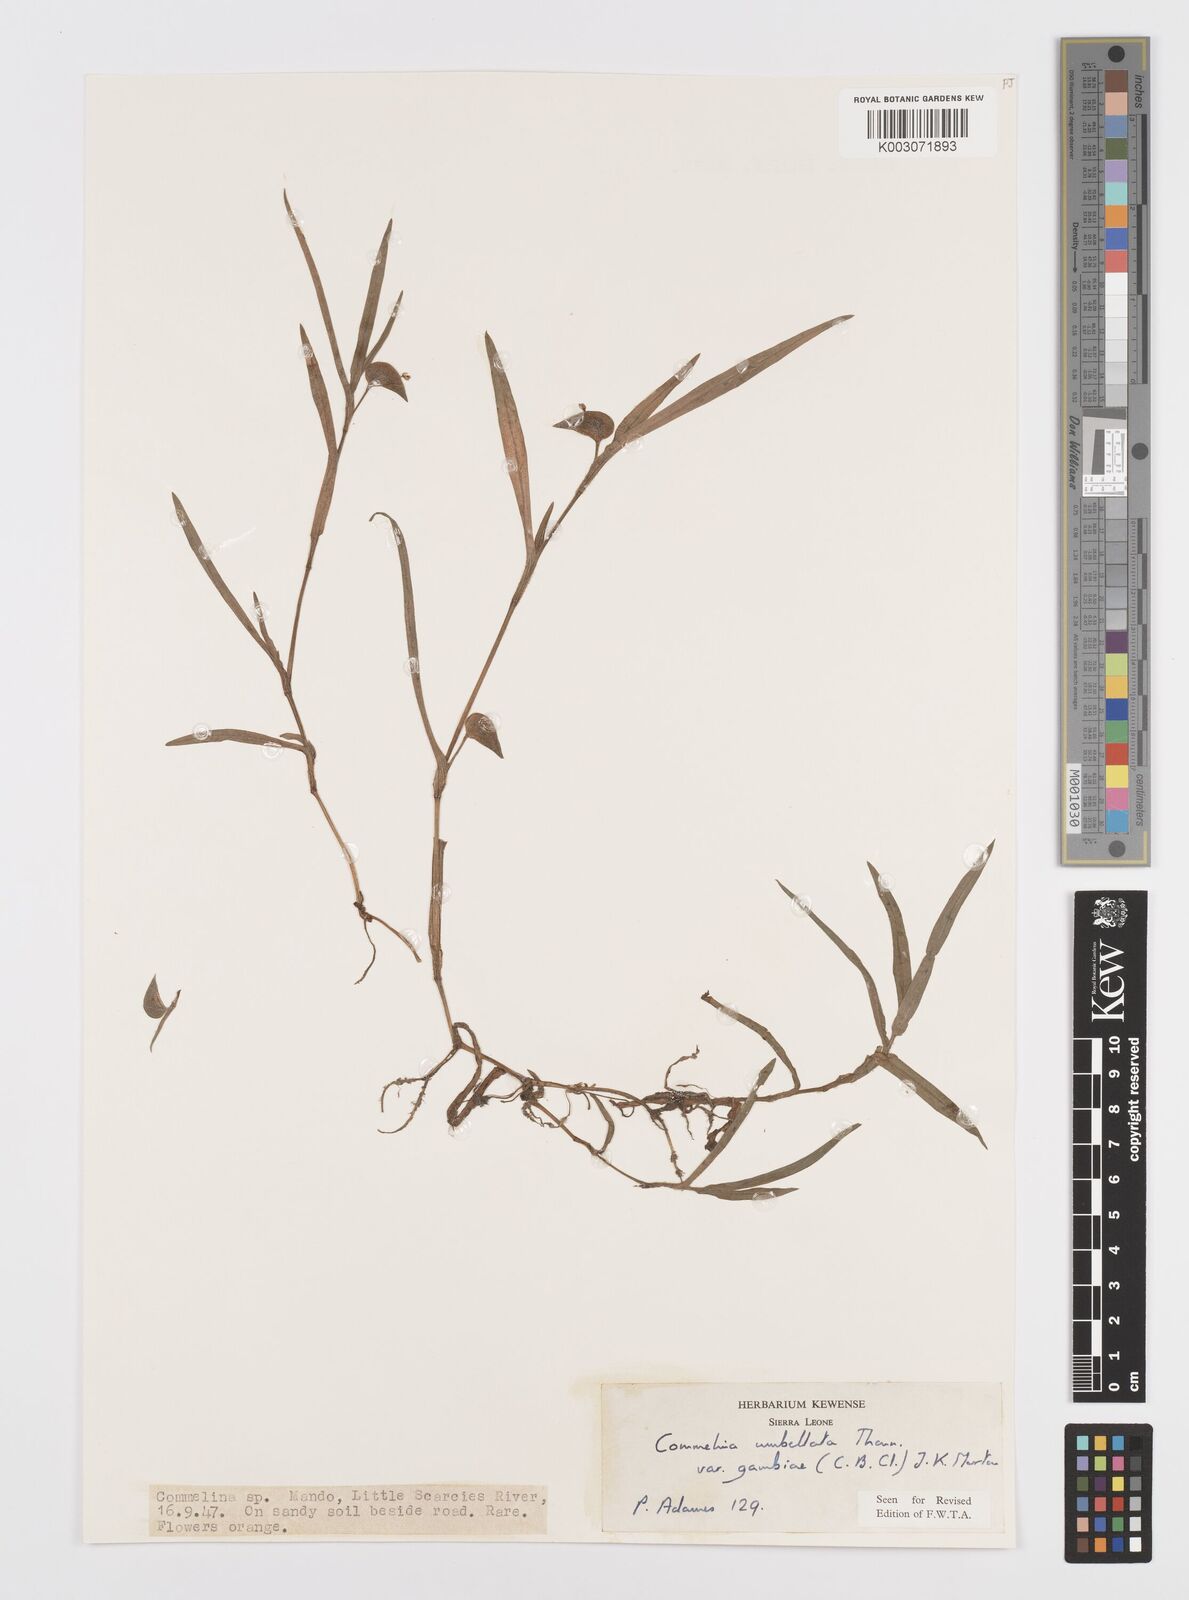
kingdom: Plantae
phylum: Tracheophyta
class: Liliopsida
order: Commelinales
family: Commelinaceae
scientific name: Commelinaceae
